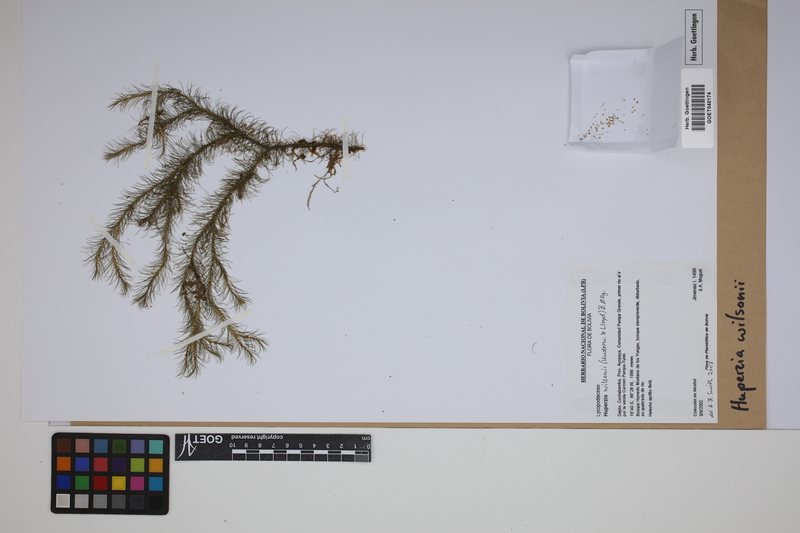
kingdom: Plantae
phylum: Tracheophyta
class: Lycopodiopsida
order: Lycopodiales
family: Lycopodiaceae
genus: Phlegmariurus
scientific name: Phlegmariurus wilsonii
